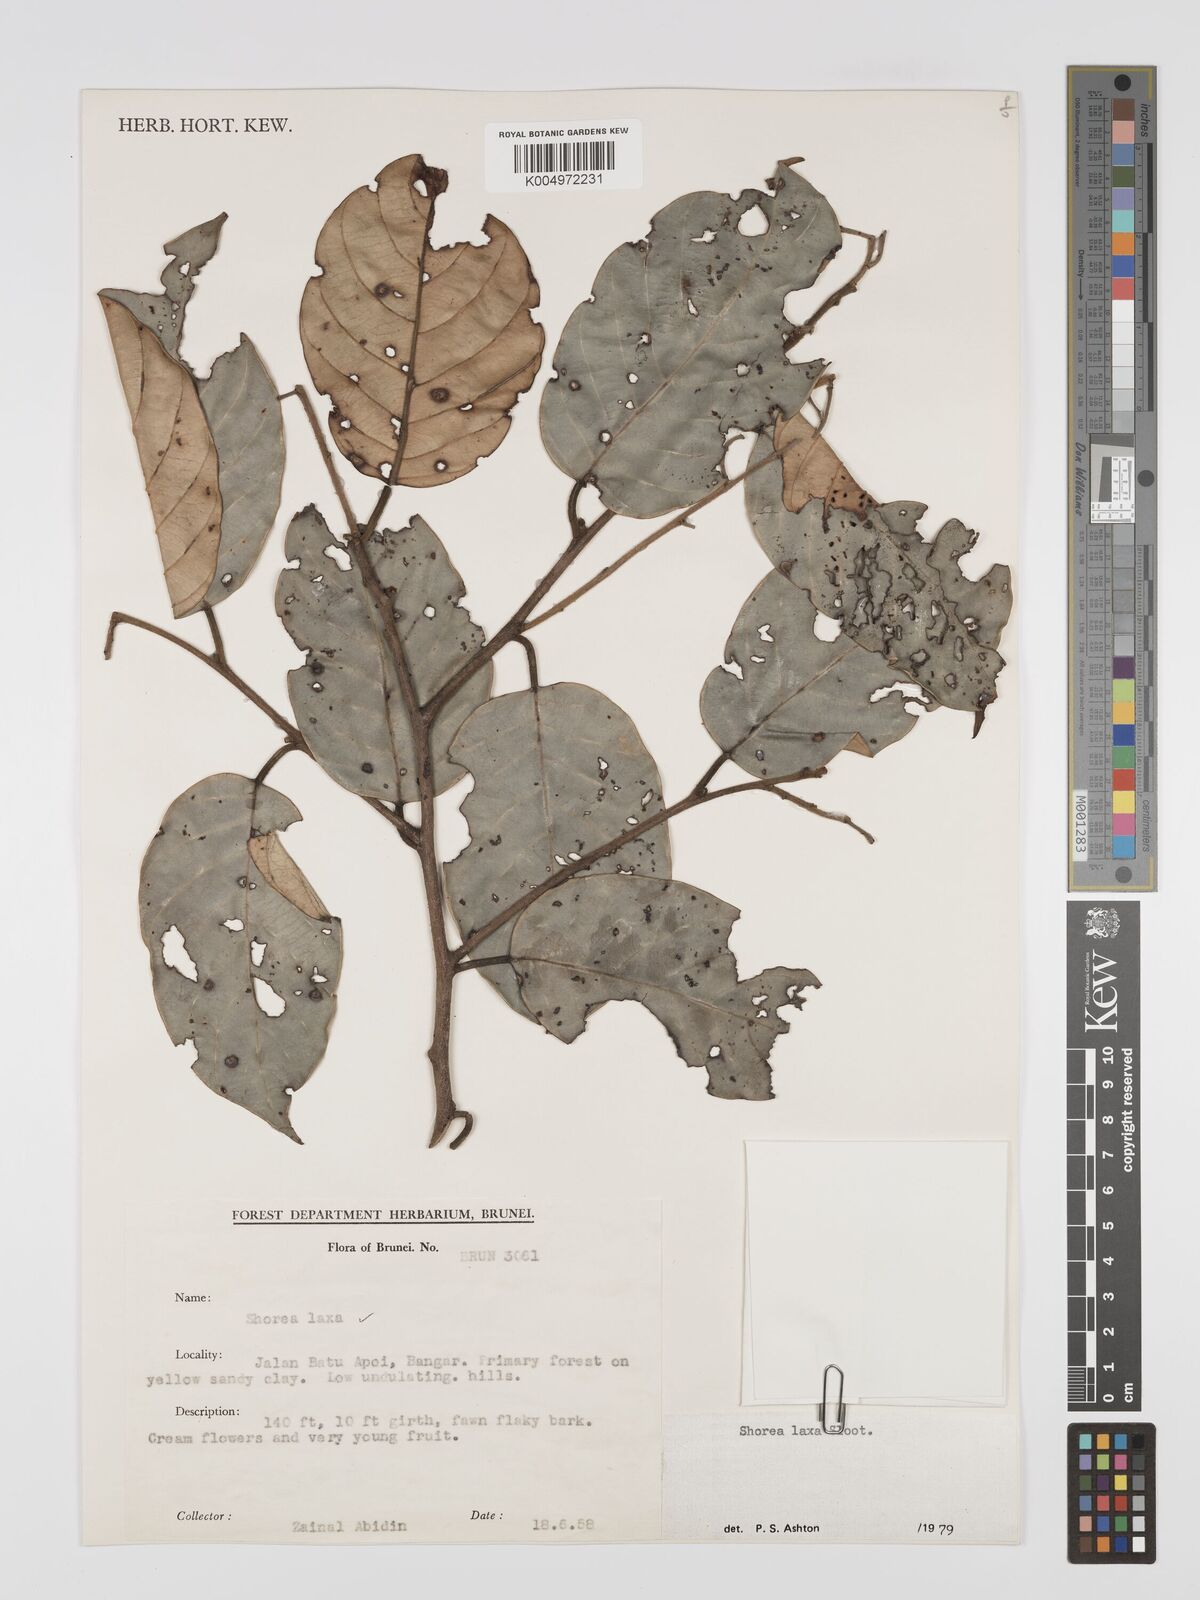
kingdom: Plantae
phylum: Tracheophyta
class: Magnoliopsida
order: Malvales
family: Dipterocarpaceae
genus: Shorea
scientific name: Shorea laxa
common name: Yellow meranti
